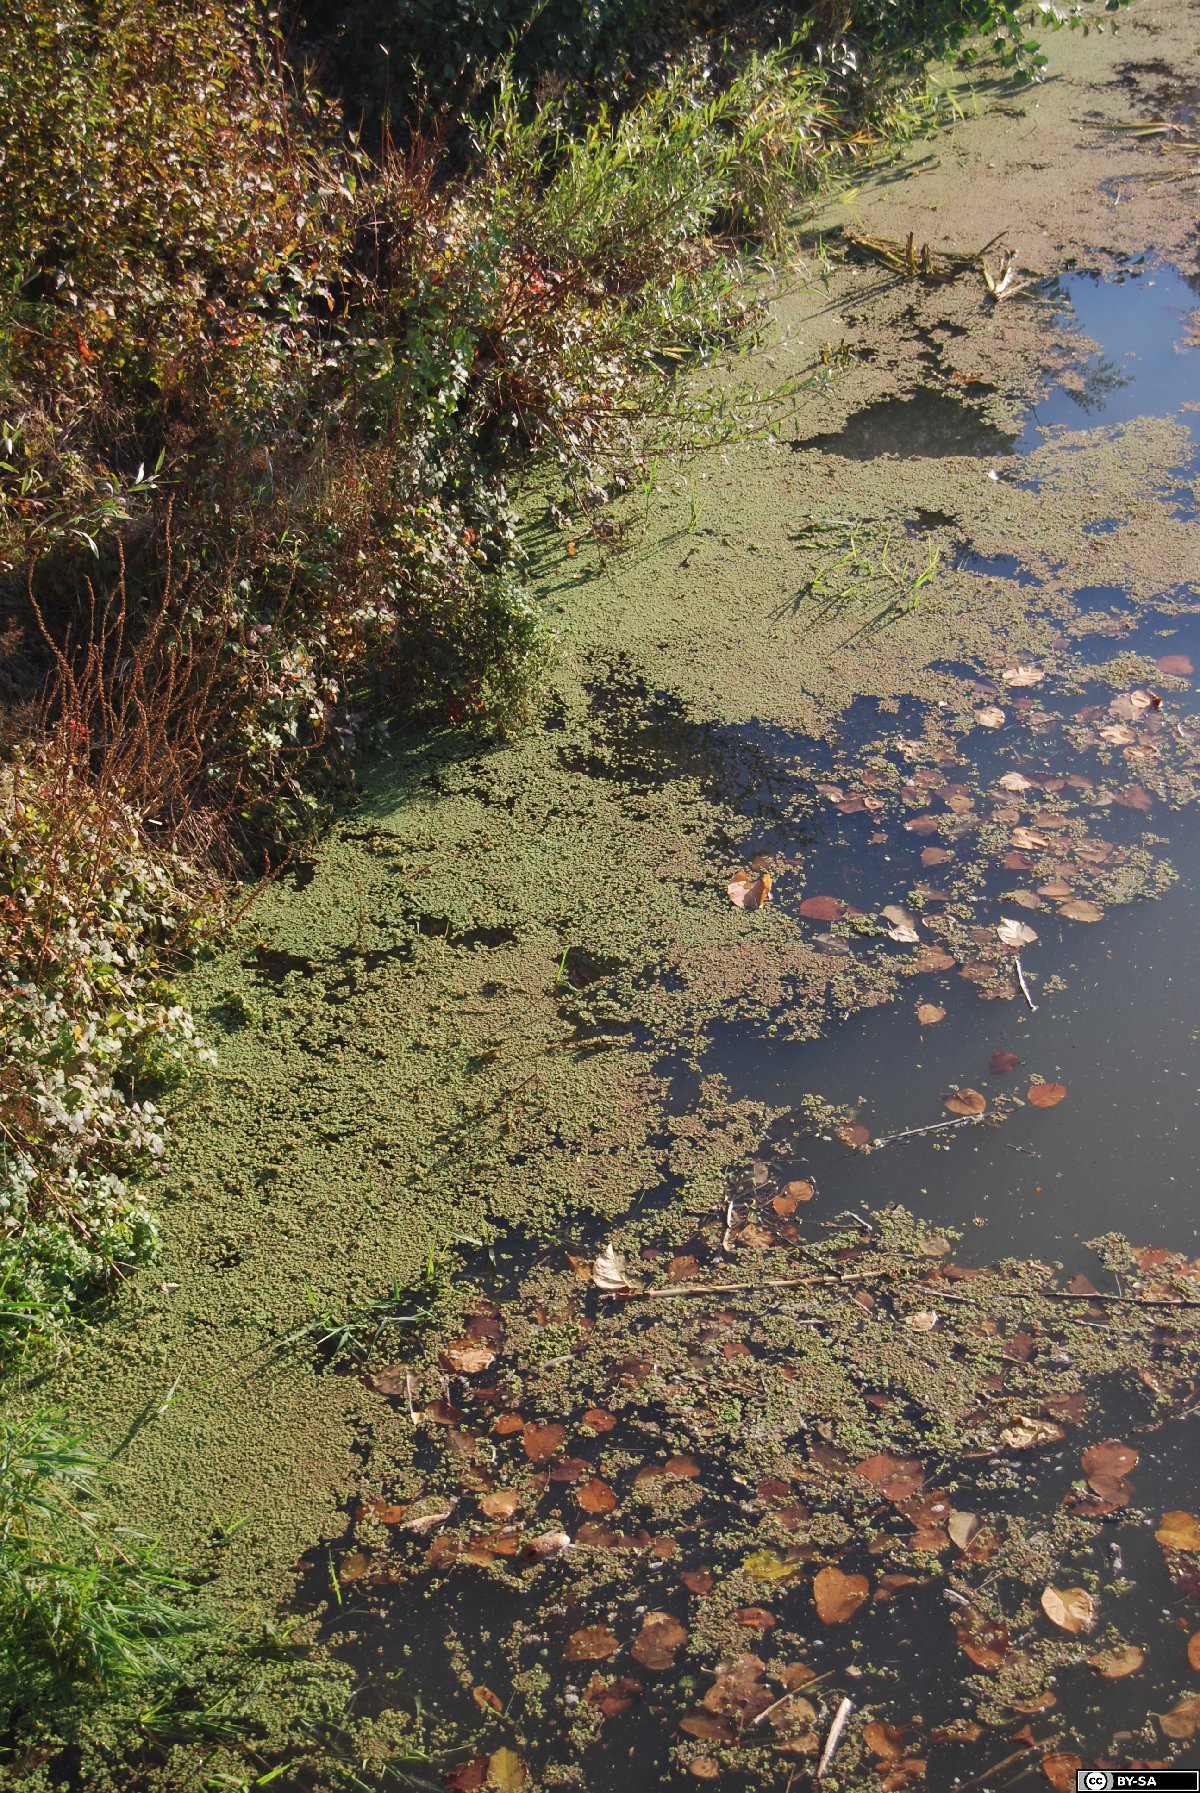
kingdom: Plantae
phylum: Tracheophyta
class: Polypodiopsida
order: Salviniales
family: Salviniaceae
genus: Azolla
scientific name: Azolla filiculoides
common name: Water fern
